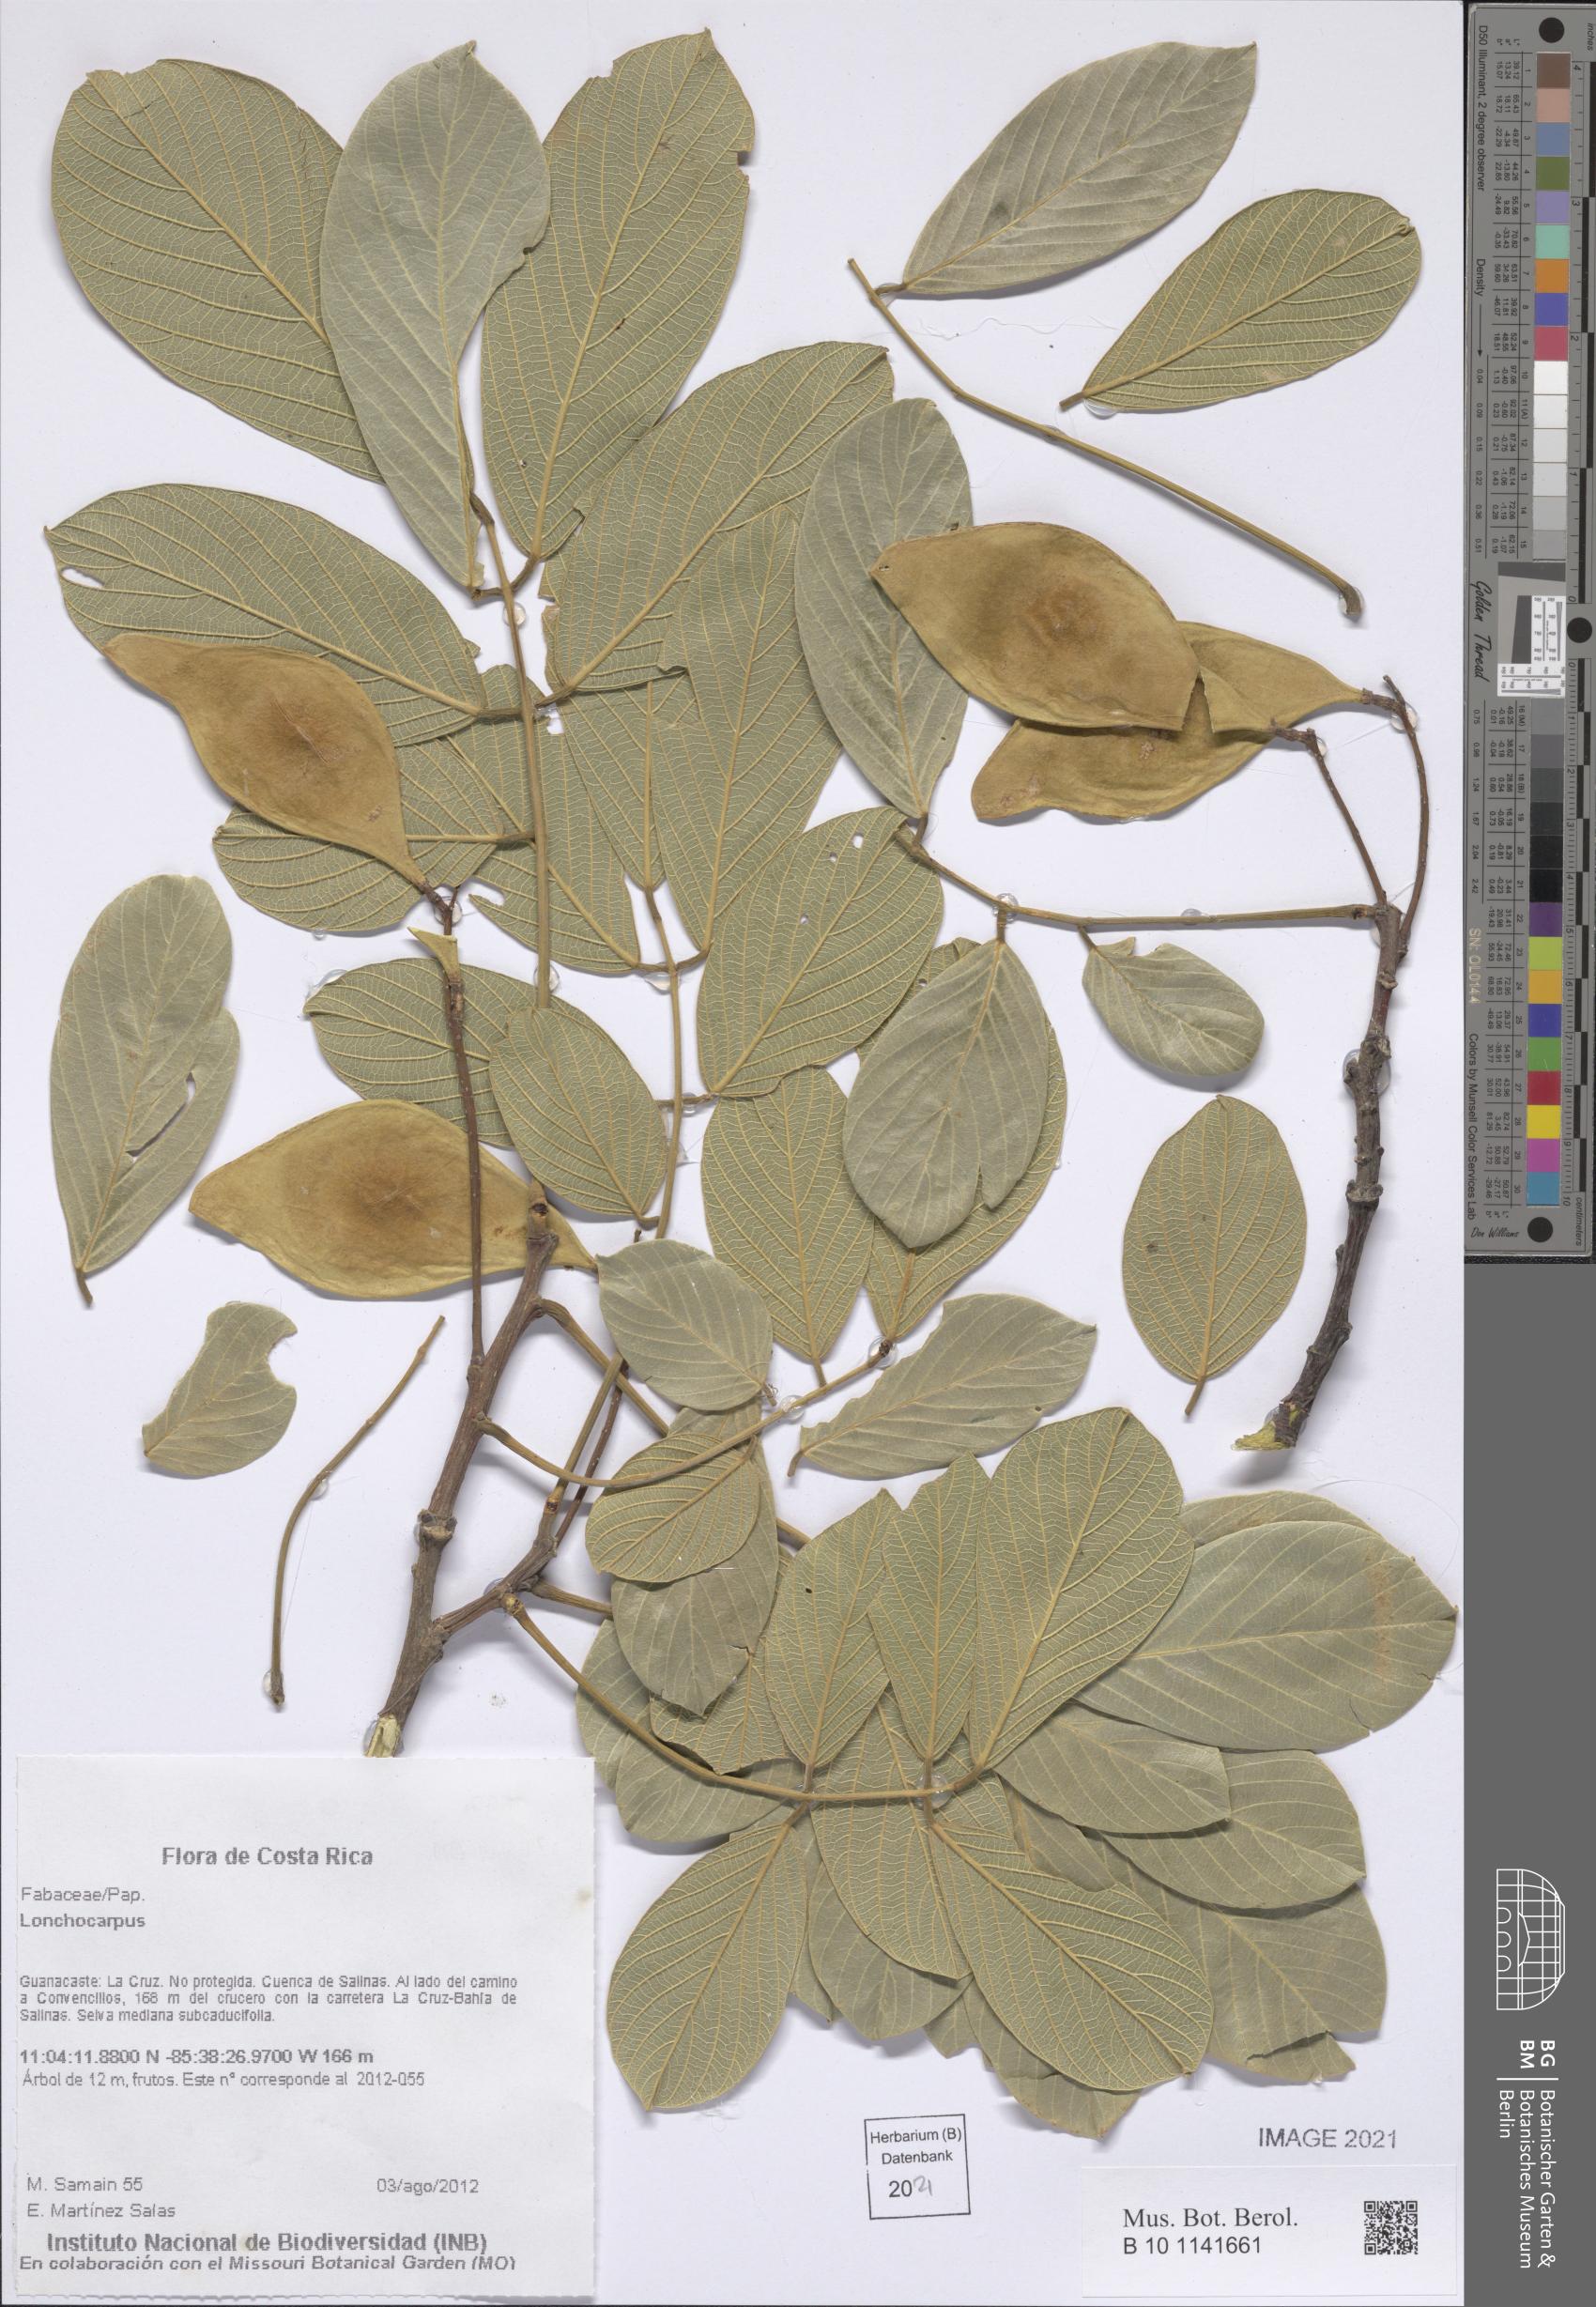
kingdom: Plantae
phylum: Tracheophyta
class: Magnoliopsida
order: Fabales
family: Fabaceae
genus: Lonchocarpus
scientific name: Lonchocarpus
